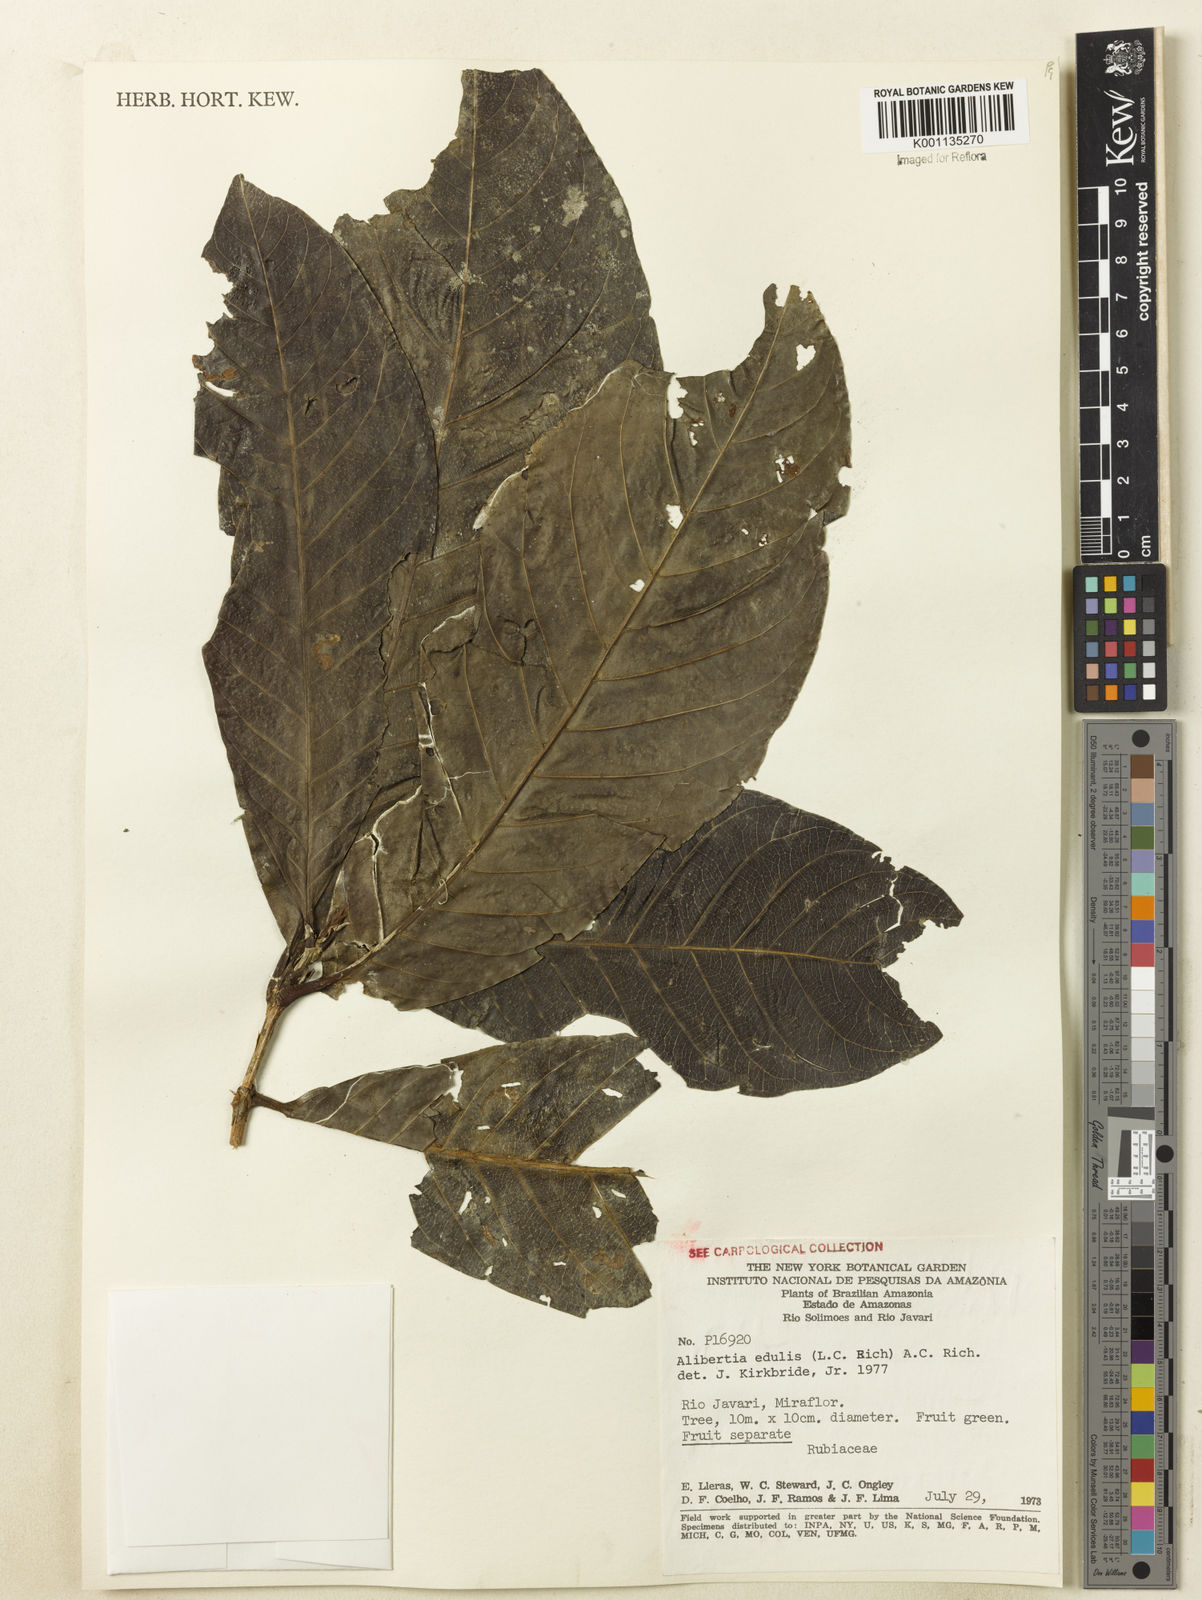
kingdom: Plantae
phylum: Tracheophyta
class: Magnoliopsida
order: Gentianales
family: Rubiaceae
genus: Alibertia
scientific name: Alibertia edulis
